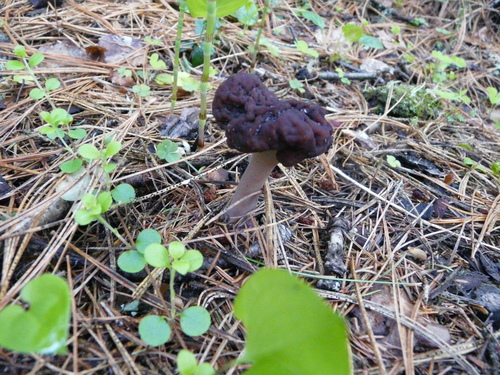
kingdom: Fungi
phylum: Ascomycota
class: Pezizomycetes
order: Pezizales
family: Discinaceae
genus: Gyromitra
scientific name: Gyromitra splendida
